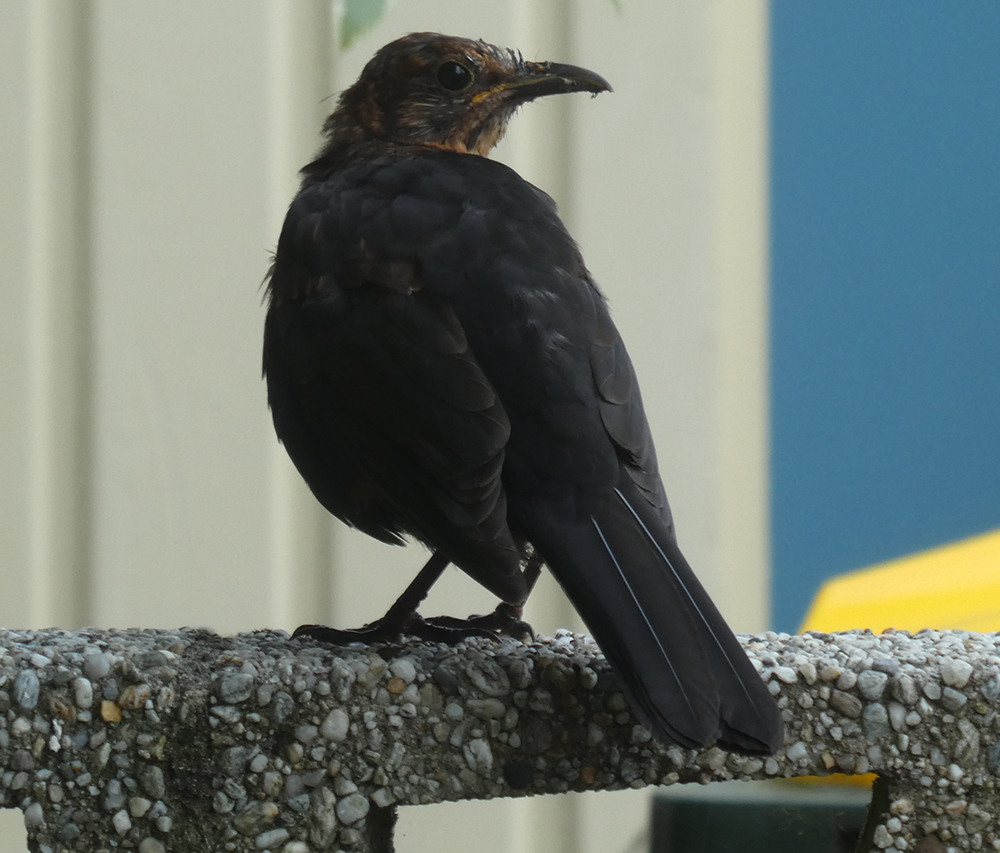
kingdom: Animalia
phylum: Chordata
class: Aves
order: Passeriformes
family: Turdidae
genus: Turdus
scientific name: Turdus merula
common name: Common blackbird
